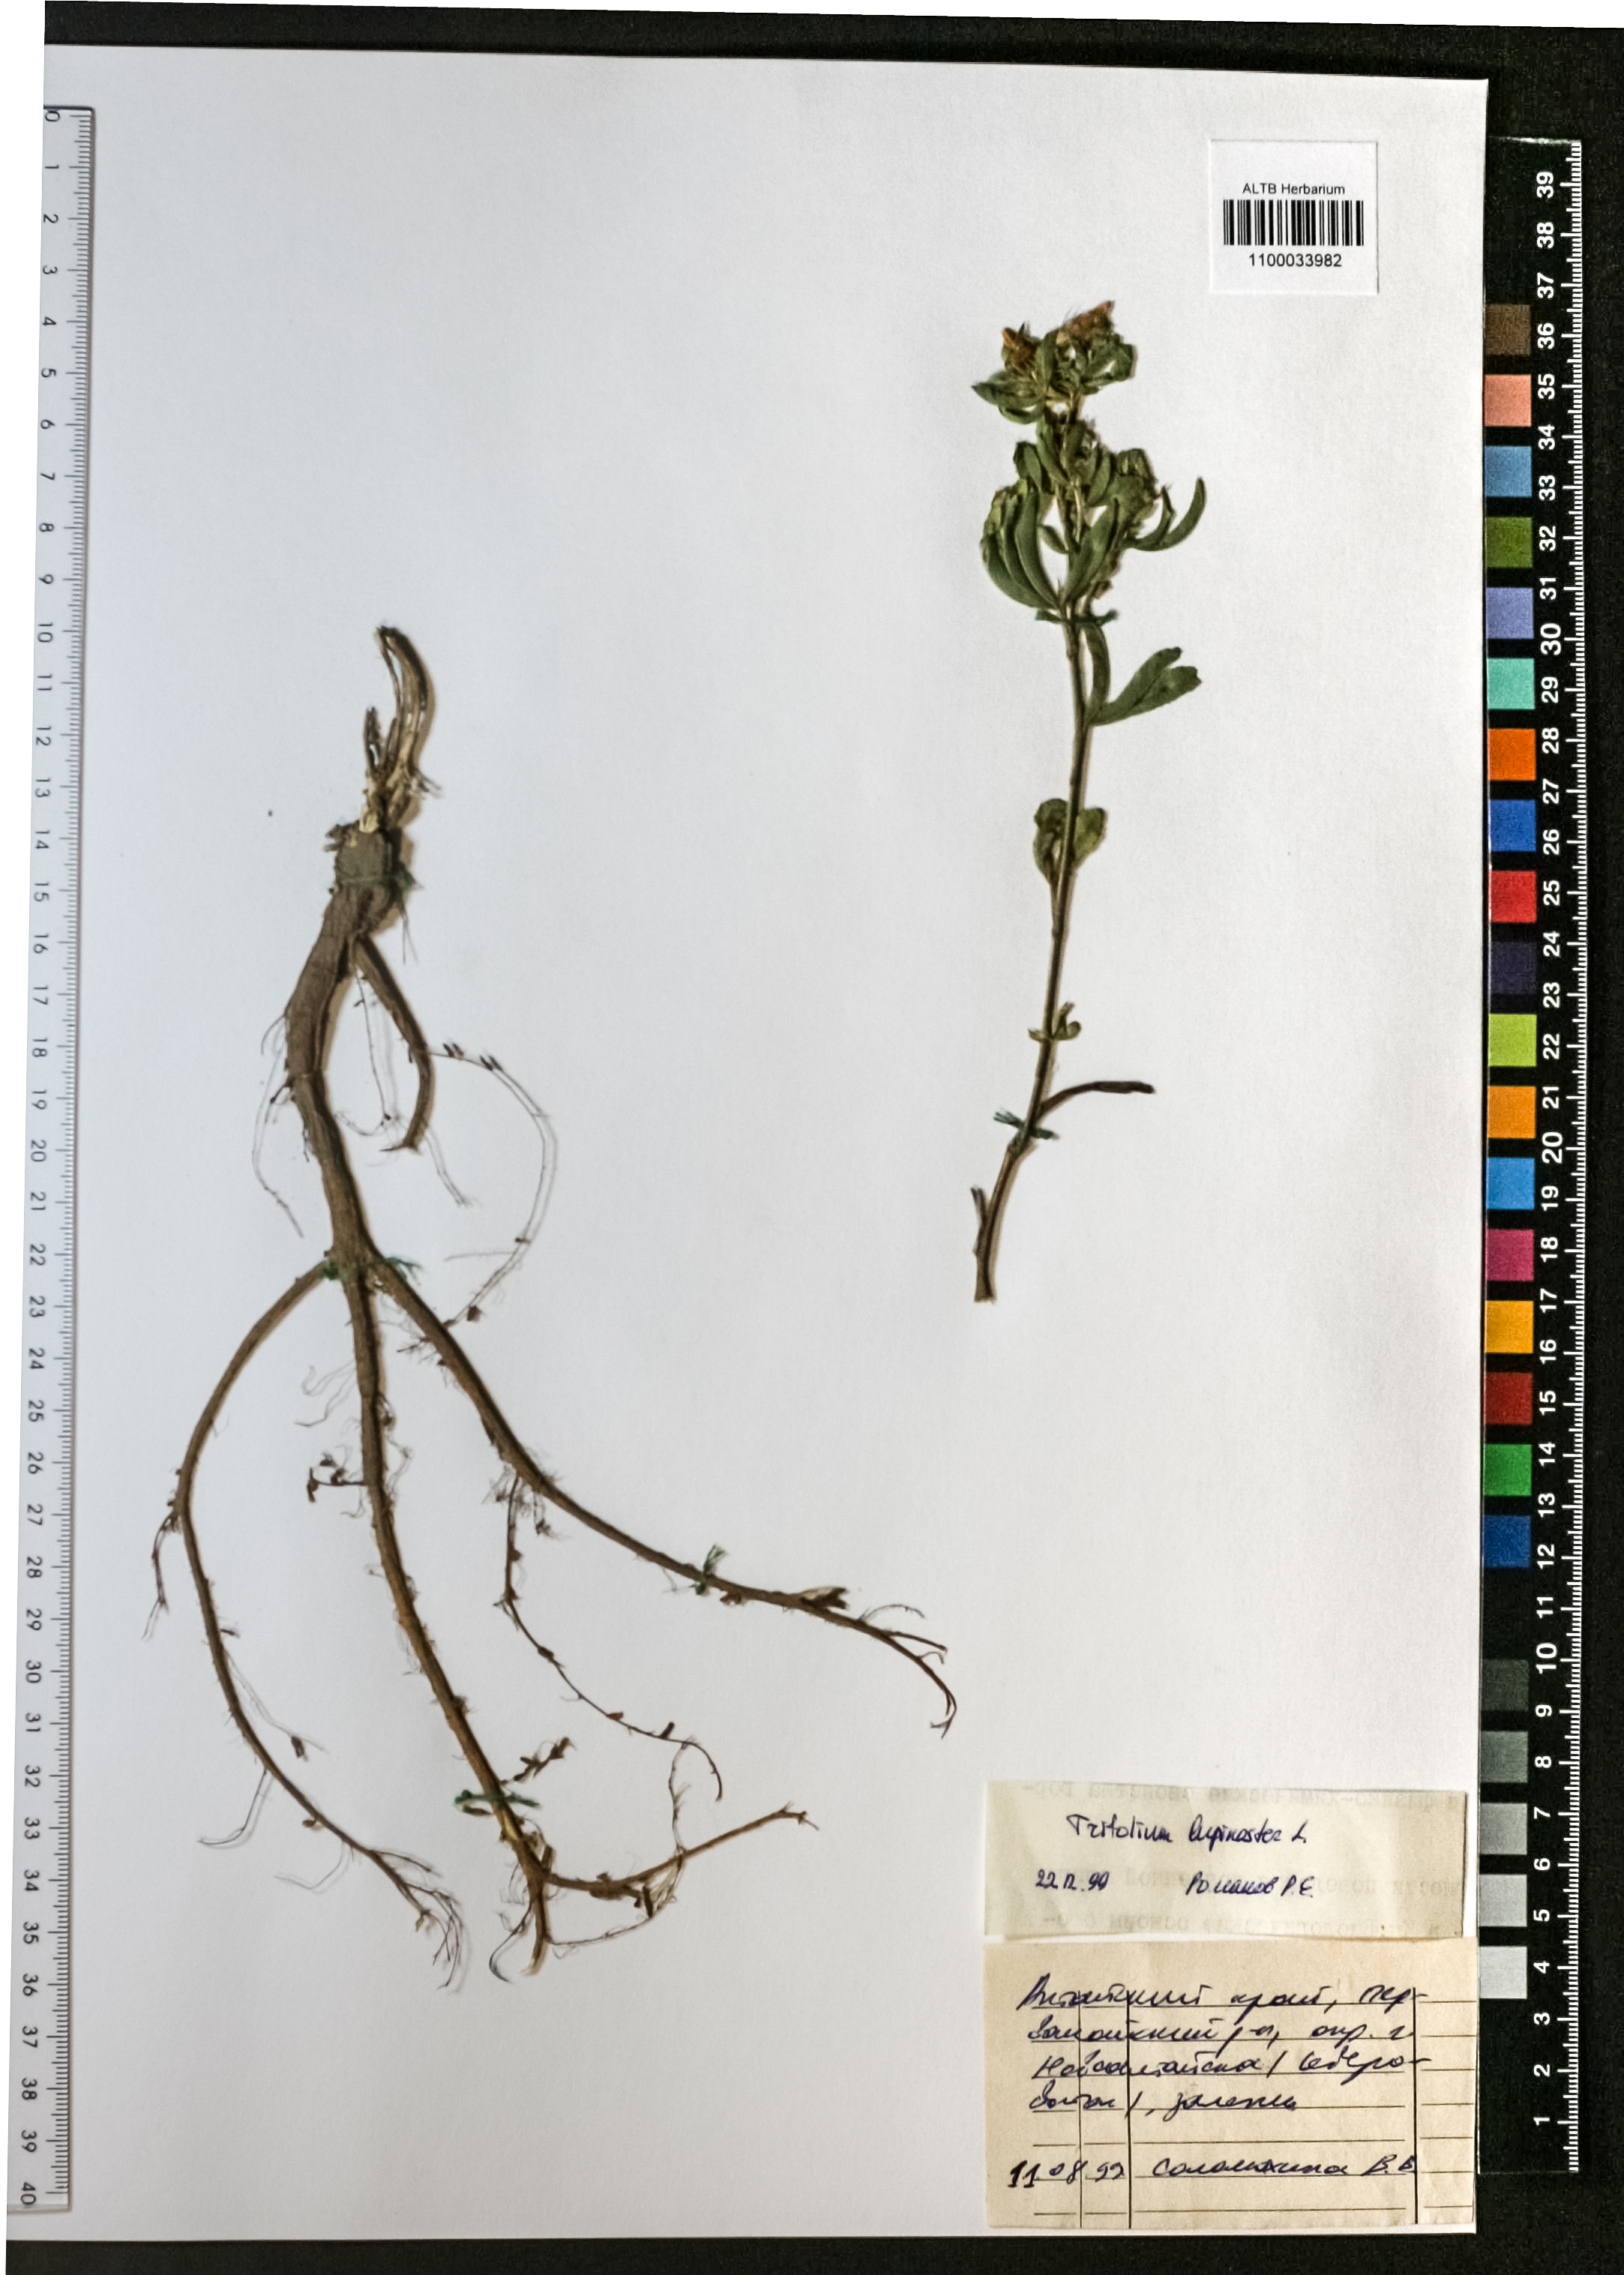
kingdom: Plantae
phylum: Tracheophyta
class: Magnoliopsida
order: Fabales
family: Fabaceae
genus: Trifolium
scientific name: Trifolium lupinaster
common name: Lupine clover
